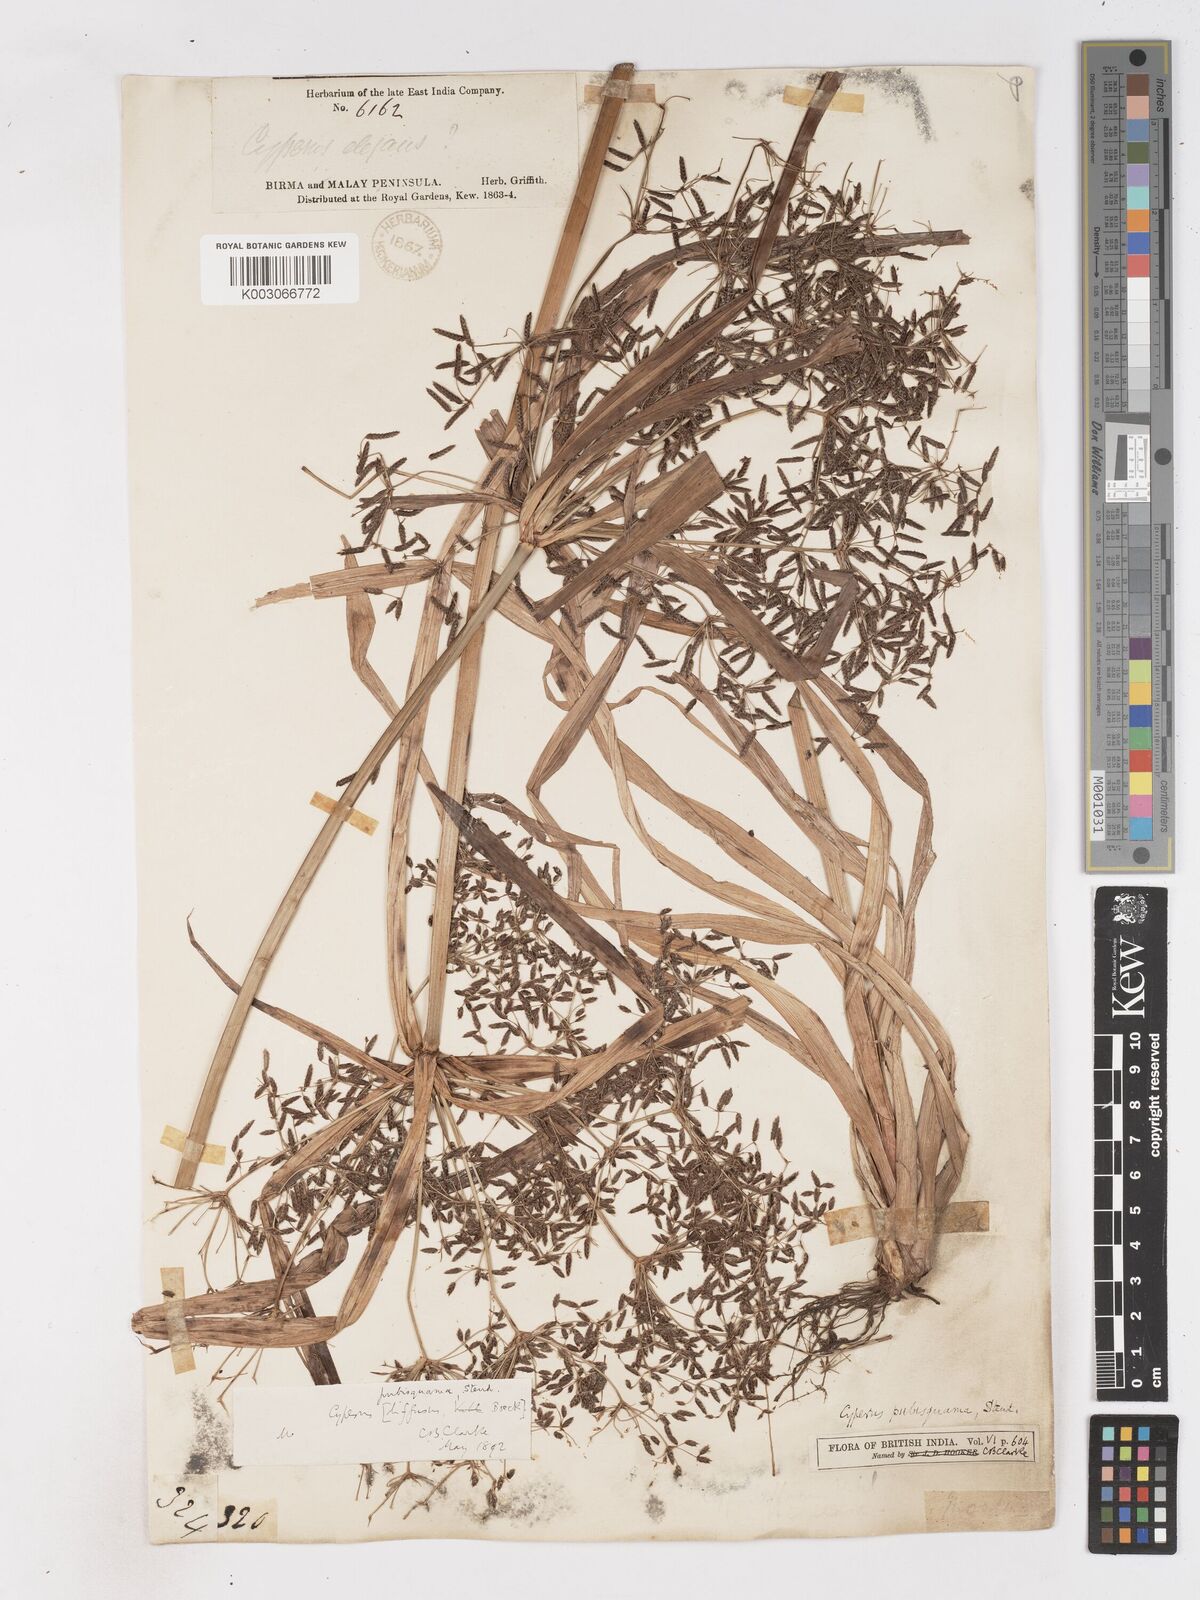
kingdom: Plantae
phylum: Tracheophyta
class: Liliopsida
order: Poales
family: Cyperaceae
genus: Cyperus
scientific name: Cyperus diffusus
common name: Dwarf umbrella grass
